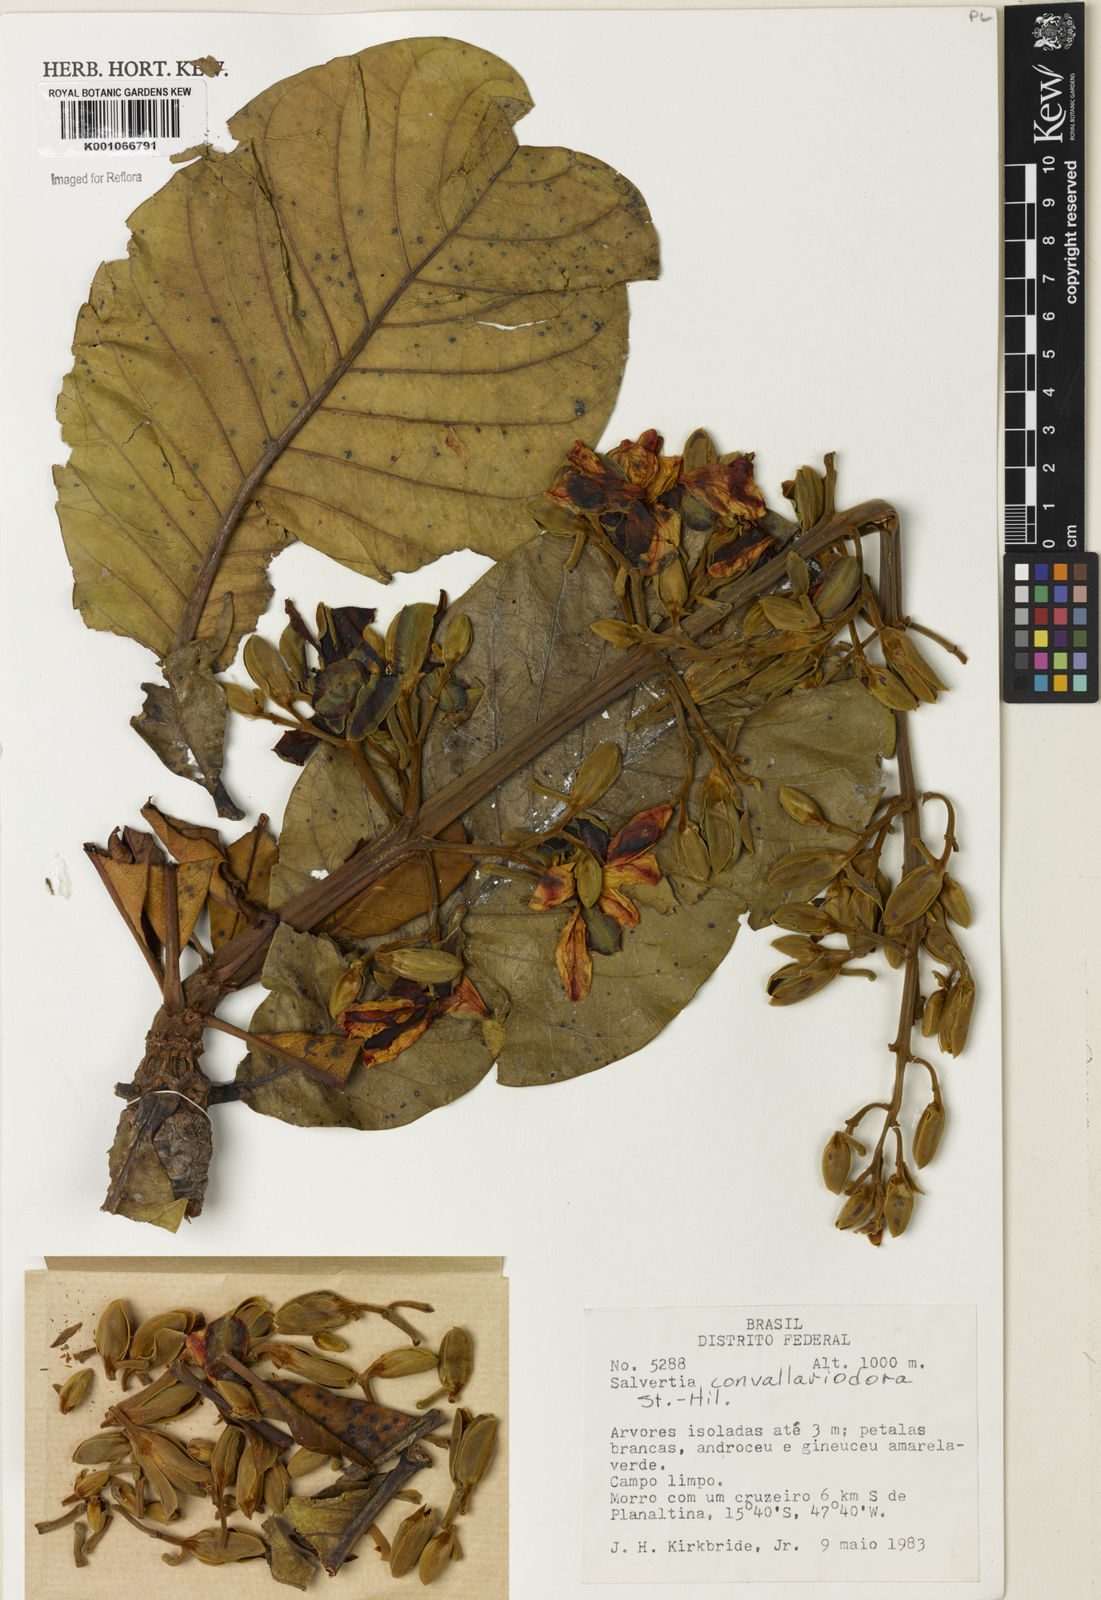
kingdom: Plantae
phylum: Tracheophyta
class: Magnoliopsida
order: Myrtales
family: Vochysiaceae
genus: Salvertia
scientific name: Salvertia convallariodora
